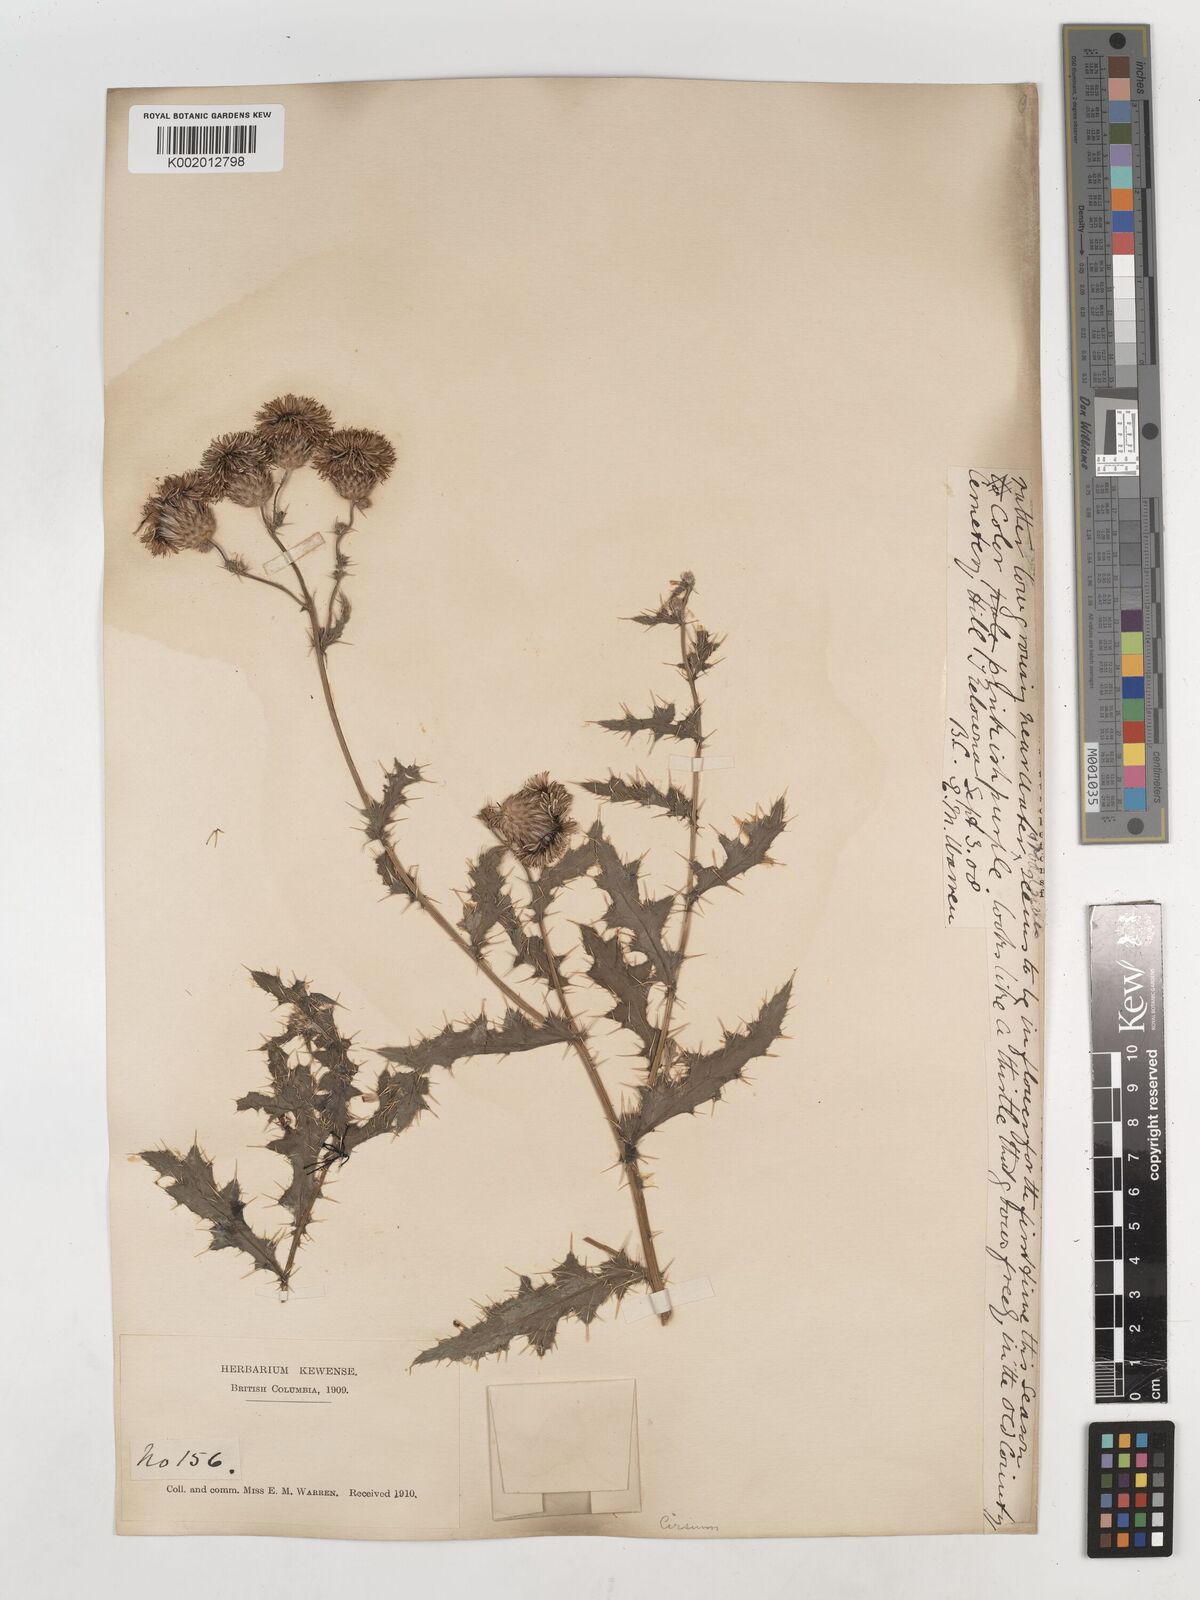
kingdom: Plantae
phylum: Tracheophyta
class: Magnoliopsida
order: Asterales
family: Asteraceae
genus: Cirsium
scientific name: Cirsium
